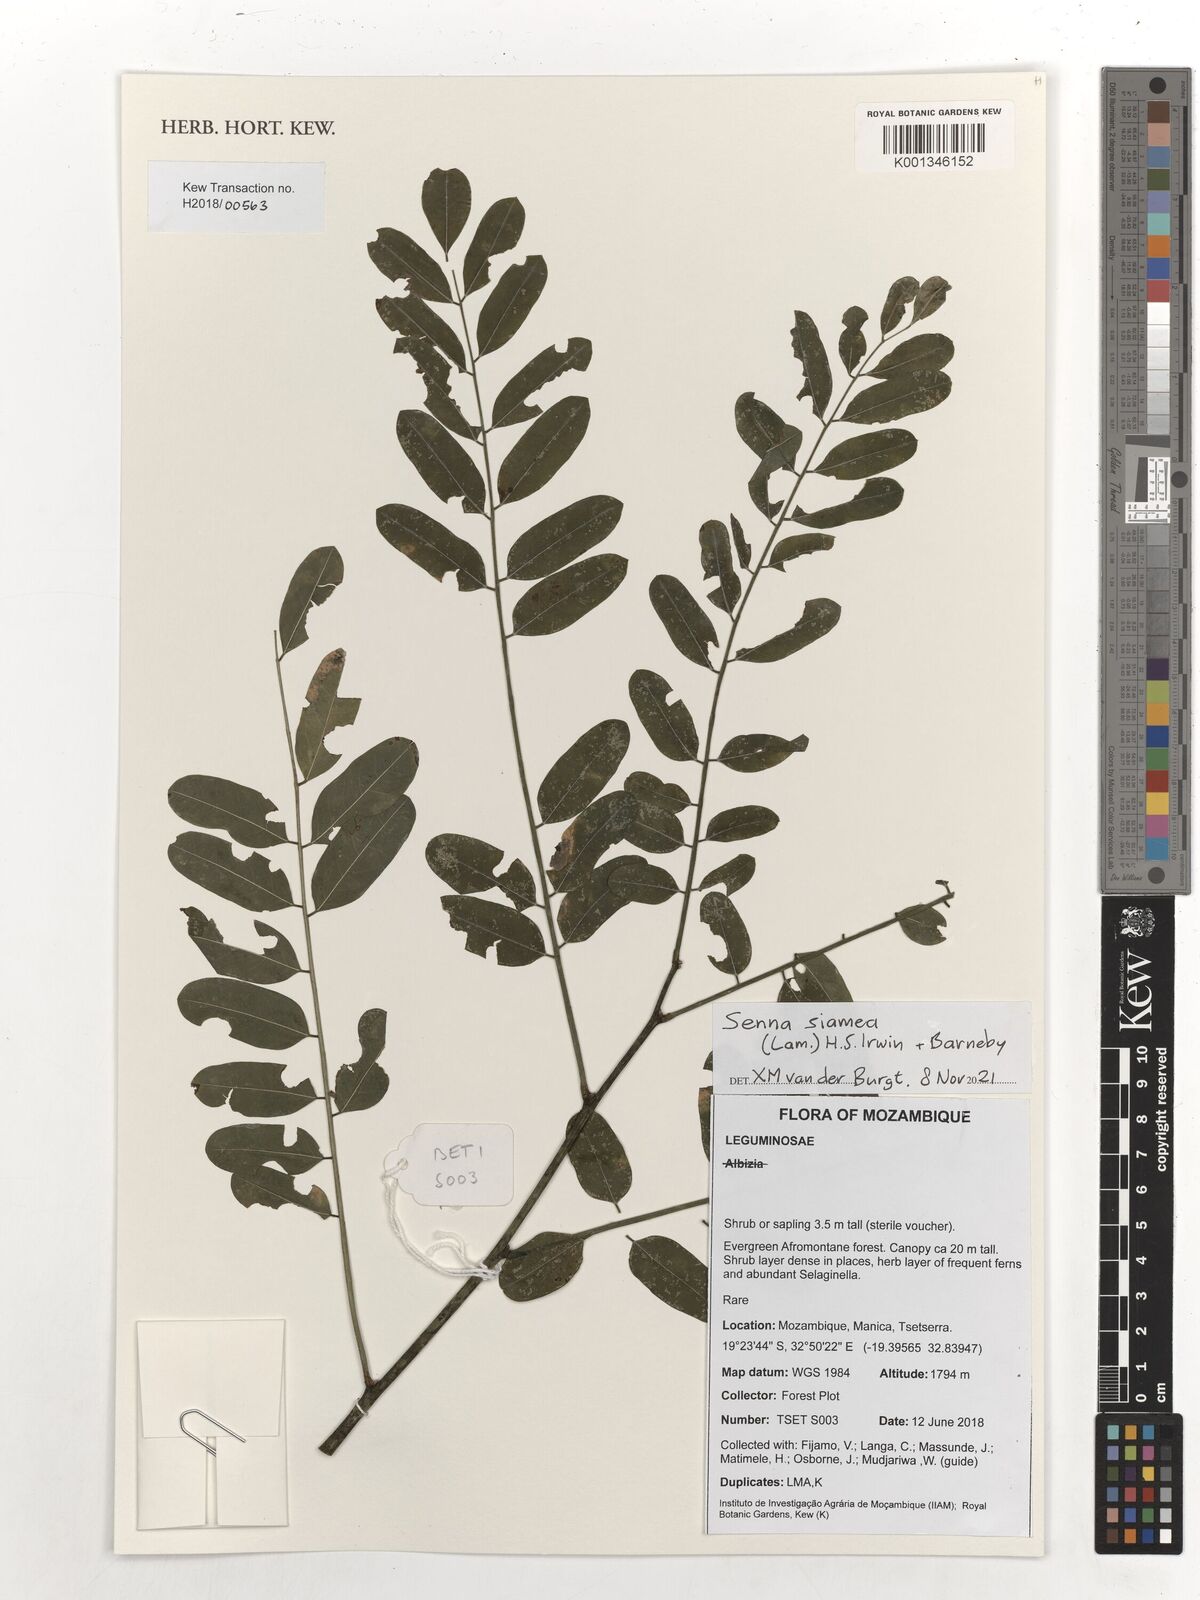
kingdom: Plantae
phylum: Tracheophyta
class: Magnoliopsida
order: Fabales
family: Fabaceae
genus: Senna
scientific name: Senna siamea
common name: Siamese cassia
